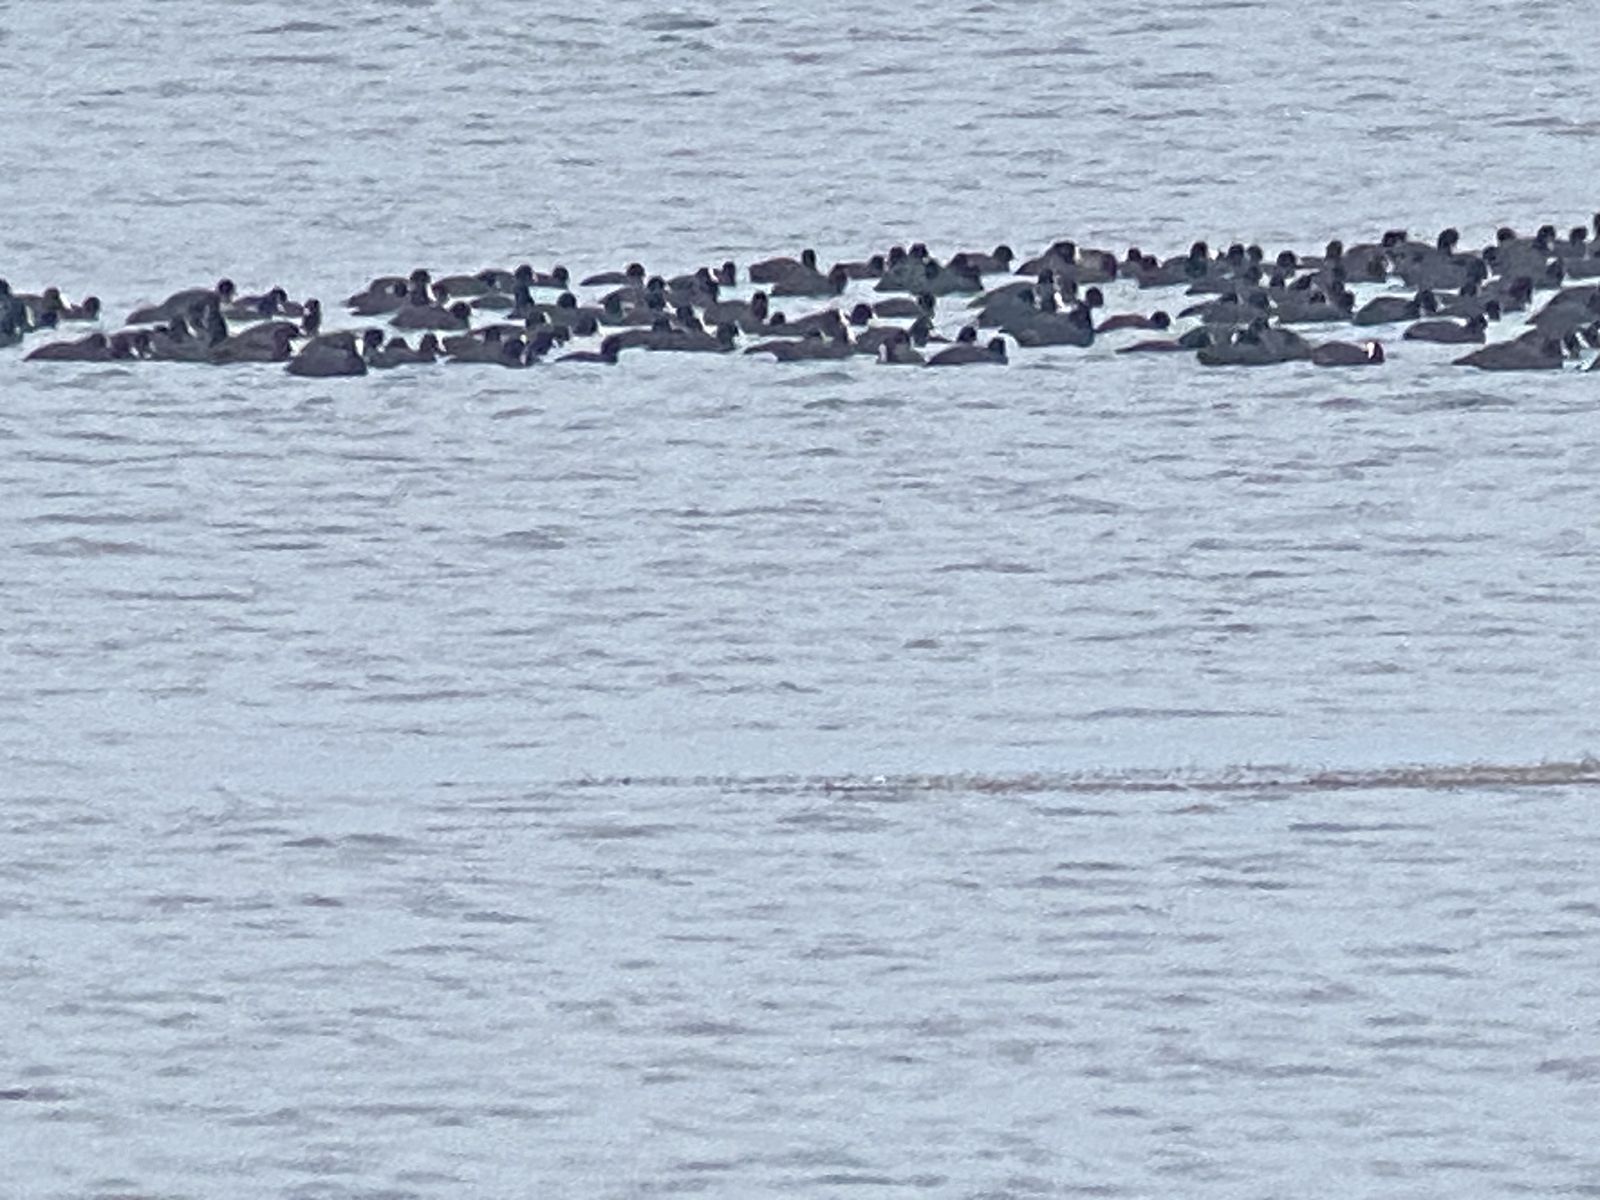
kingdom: Animalia
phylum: Chordata
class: Aves
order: Gruiformes
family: Rallidae
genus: Fulica
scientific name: Fulica atra
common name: Eurasian coot
